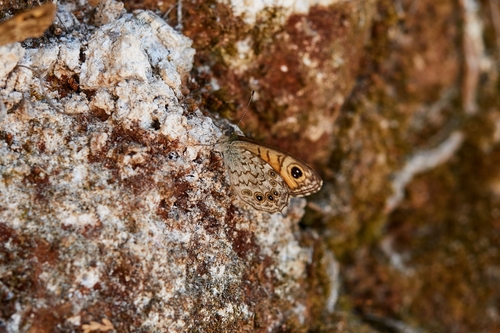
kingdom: Animalia
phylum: Arthropoda
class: Insecta
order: Lepidoptera
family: Nymphalidae
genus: Pararge
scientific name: Pararge Lasiommata maera
